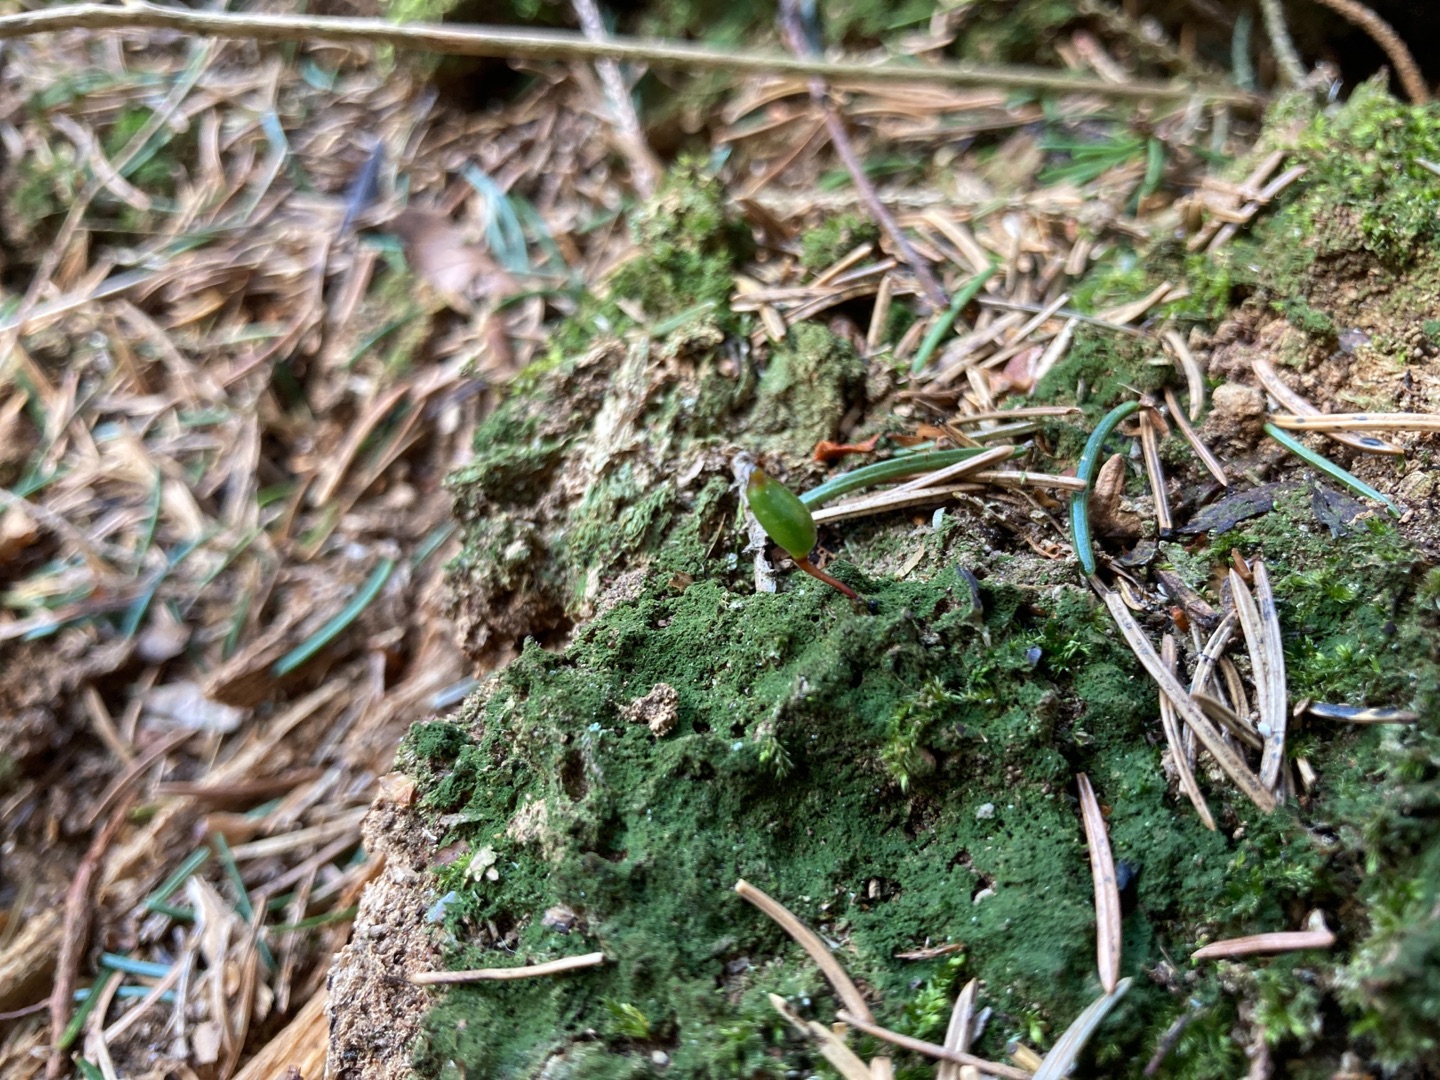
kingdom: Plantae
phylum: Bryophyta
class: Bryopsida
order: Buxbaumiales
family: Buxbaumiaceae
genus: Buxbaumia
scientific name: Buxbaumia viridis
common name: Grøn buxbaumia
